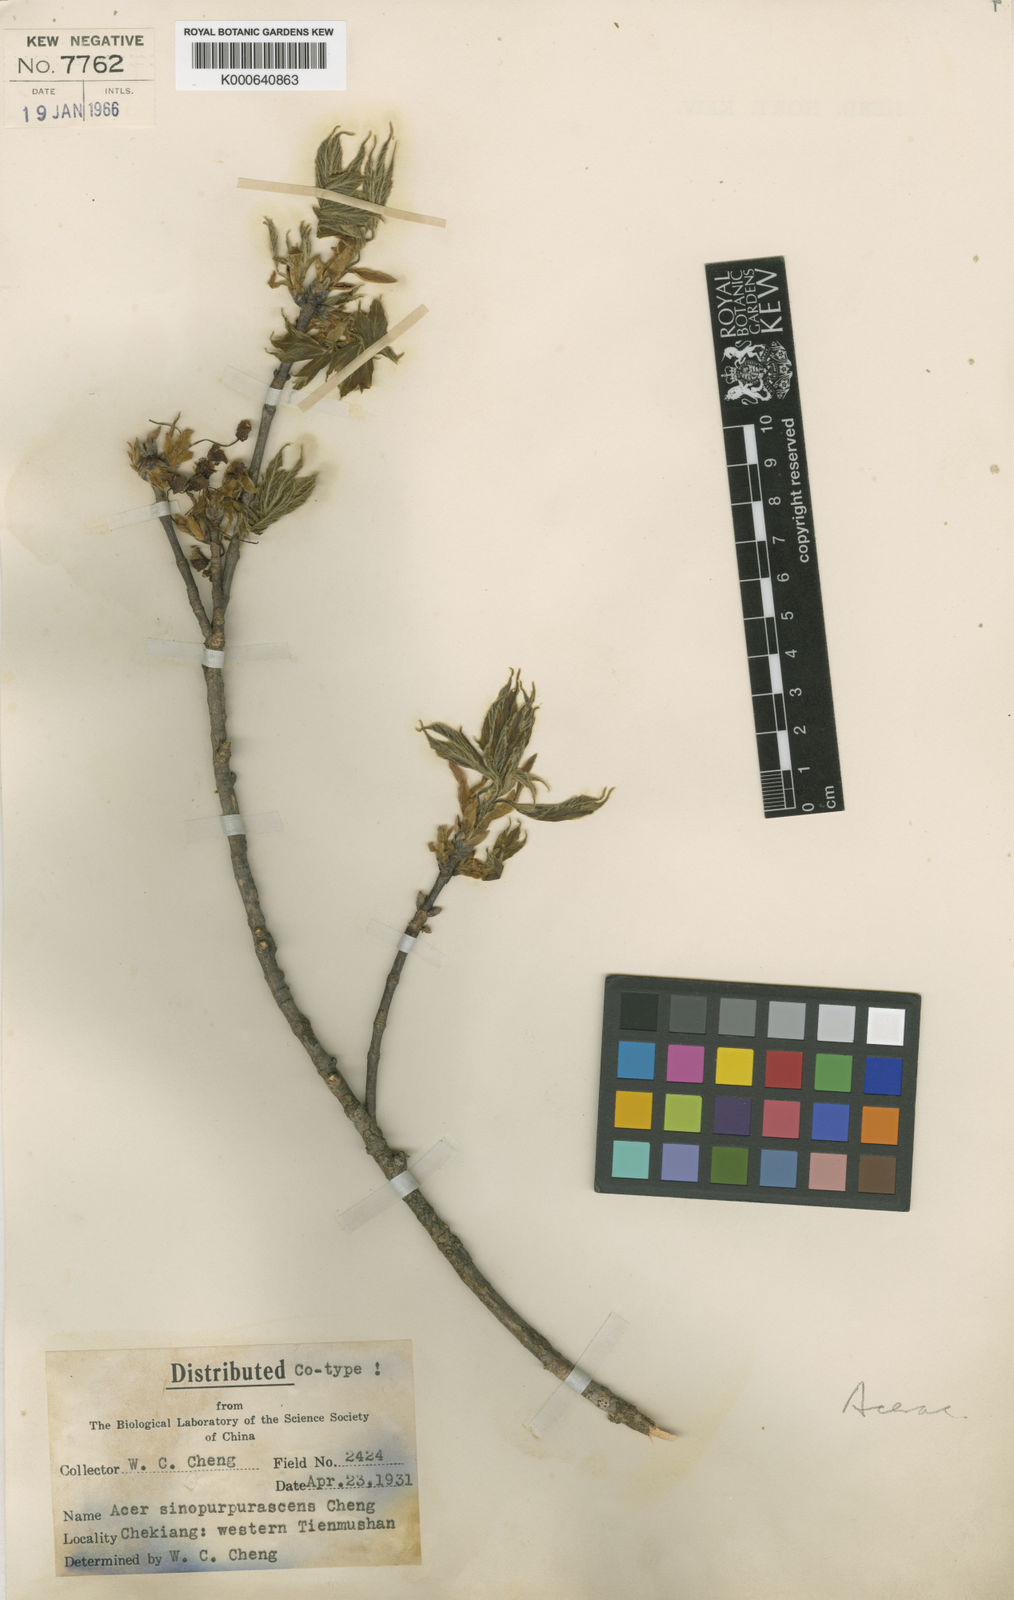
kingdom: Plantae
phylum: Tracheophyta
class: Magnoliopsida
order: Sapindales
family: Sapindaceae
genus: Acer
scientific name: Acer sinopurpurascens
